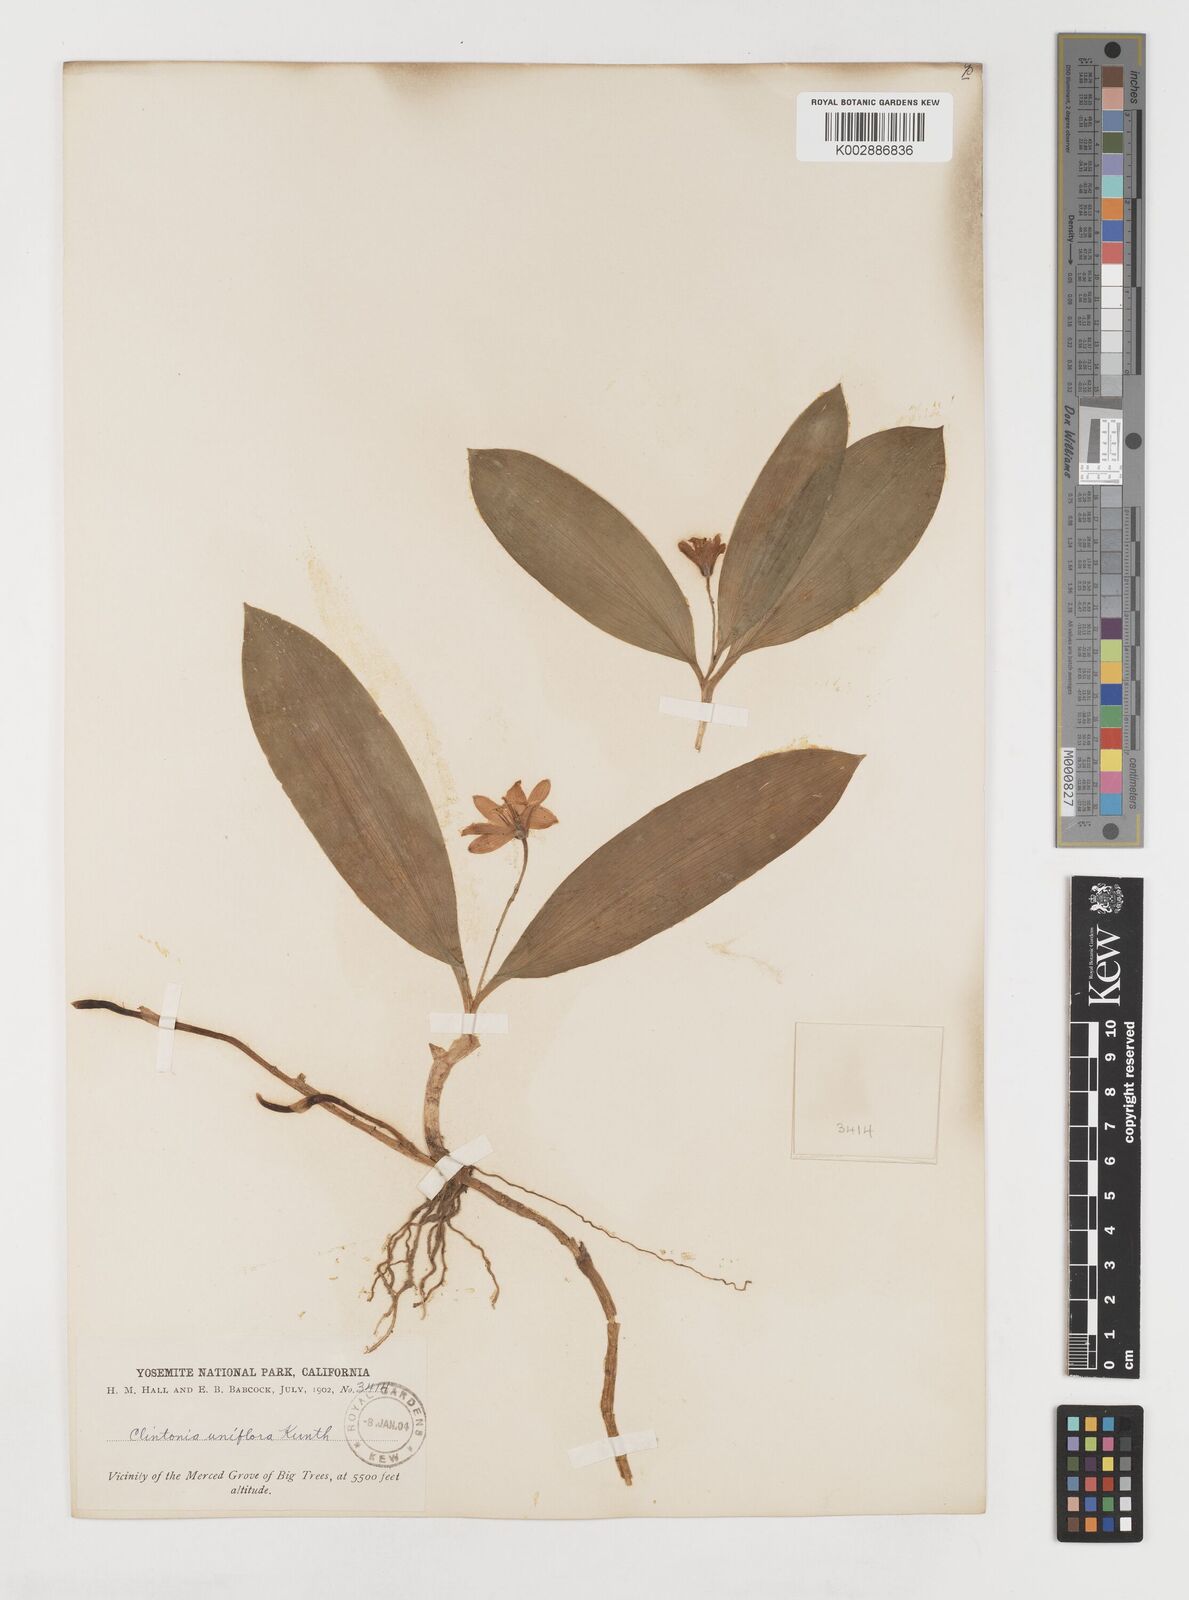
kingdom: Plantae
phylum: Tracheophyta
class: Liliopsida
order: Liliales
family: Liliaceae
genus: Clintonia
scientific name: Clintonia uniflora
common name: Queen's cup
